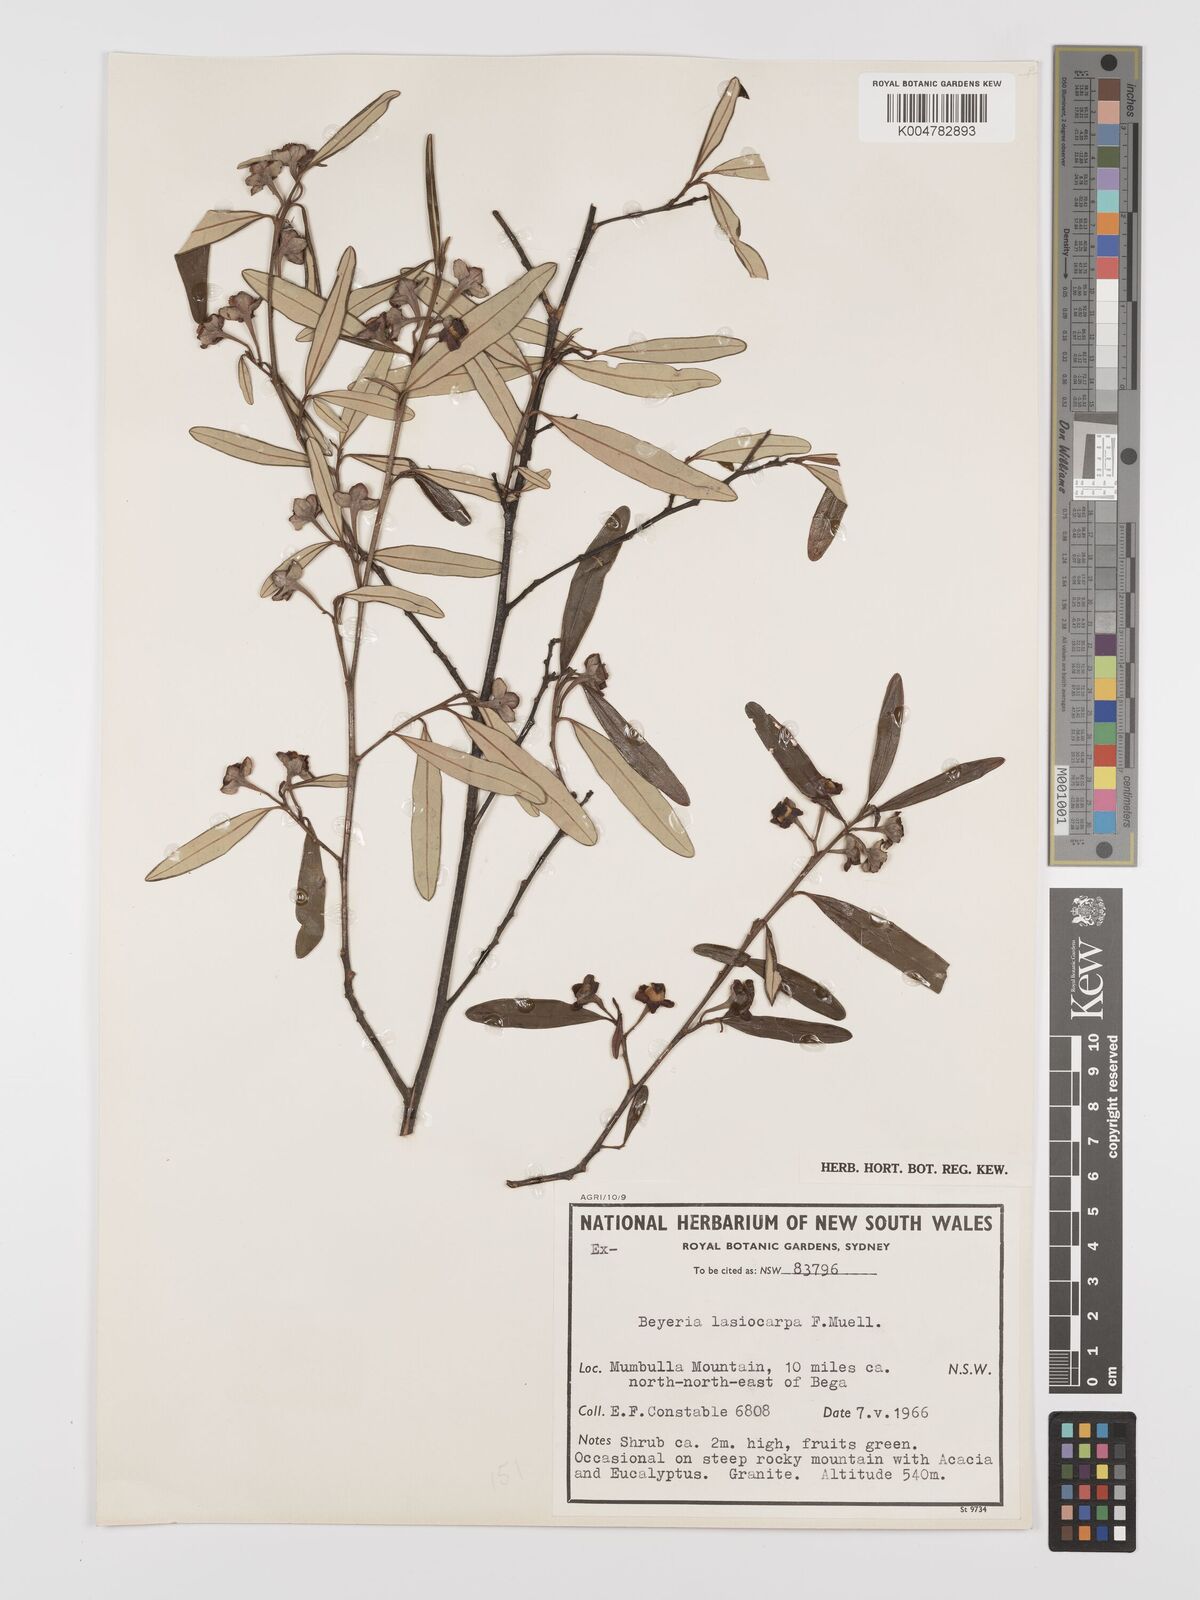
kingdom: Plantae
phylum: Tracheophyta
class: Magnoliopsida
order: Malpighiales
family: Euphorbiaceae
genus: Beyeria
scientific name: Beyeria lasiocarpa
